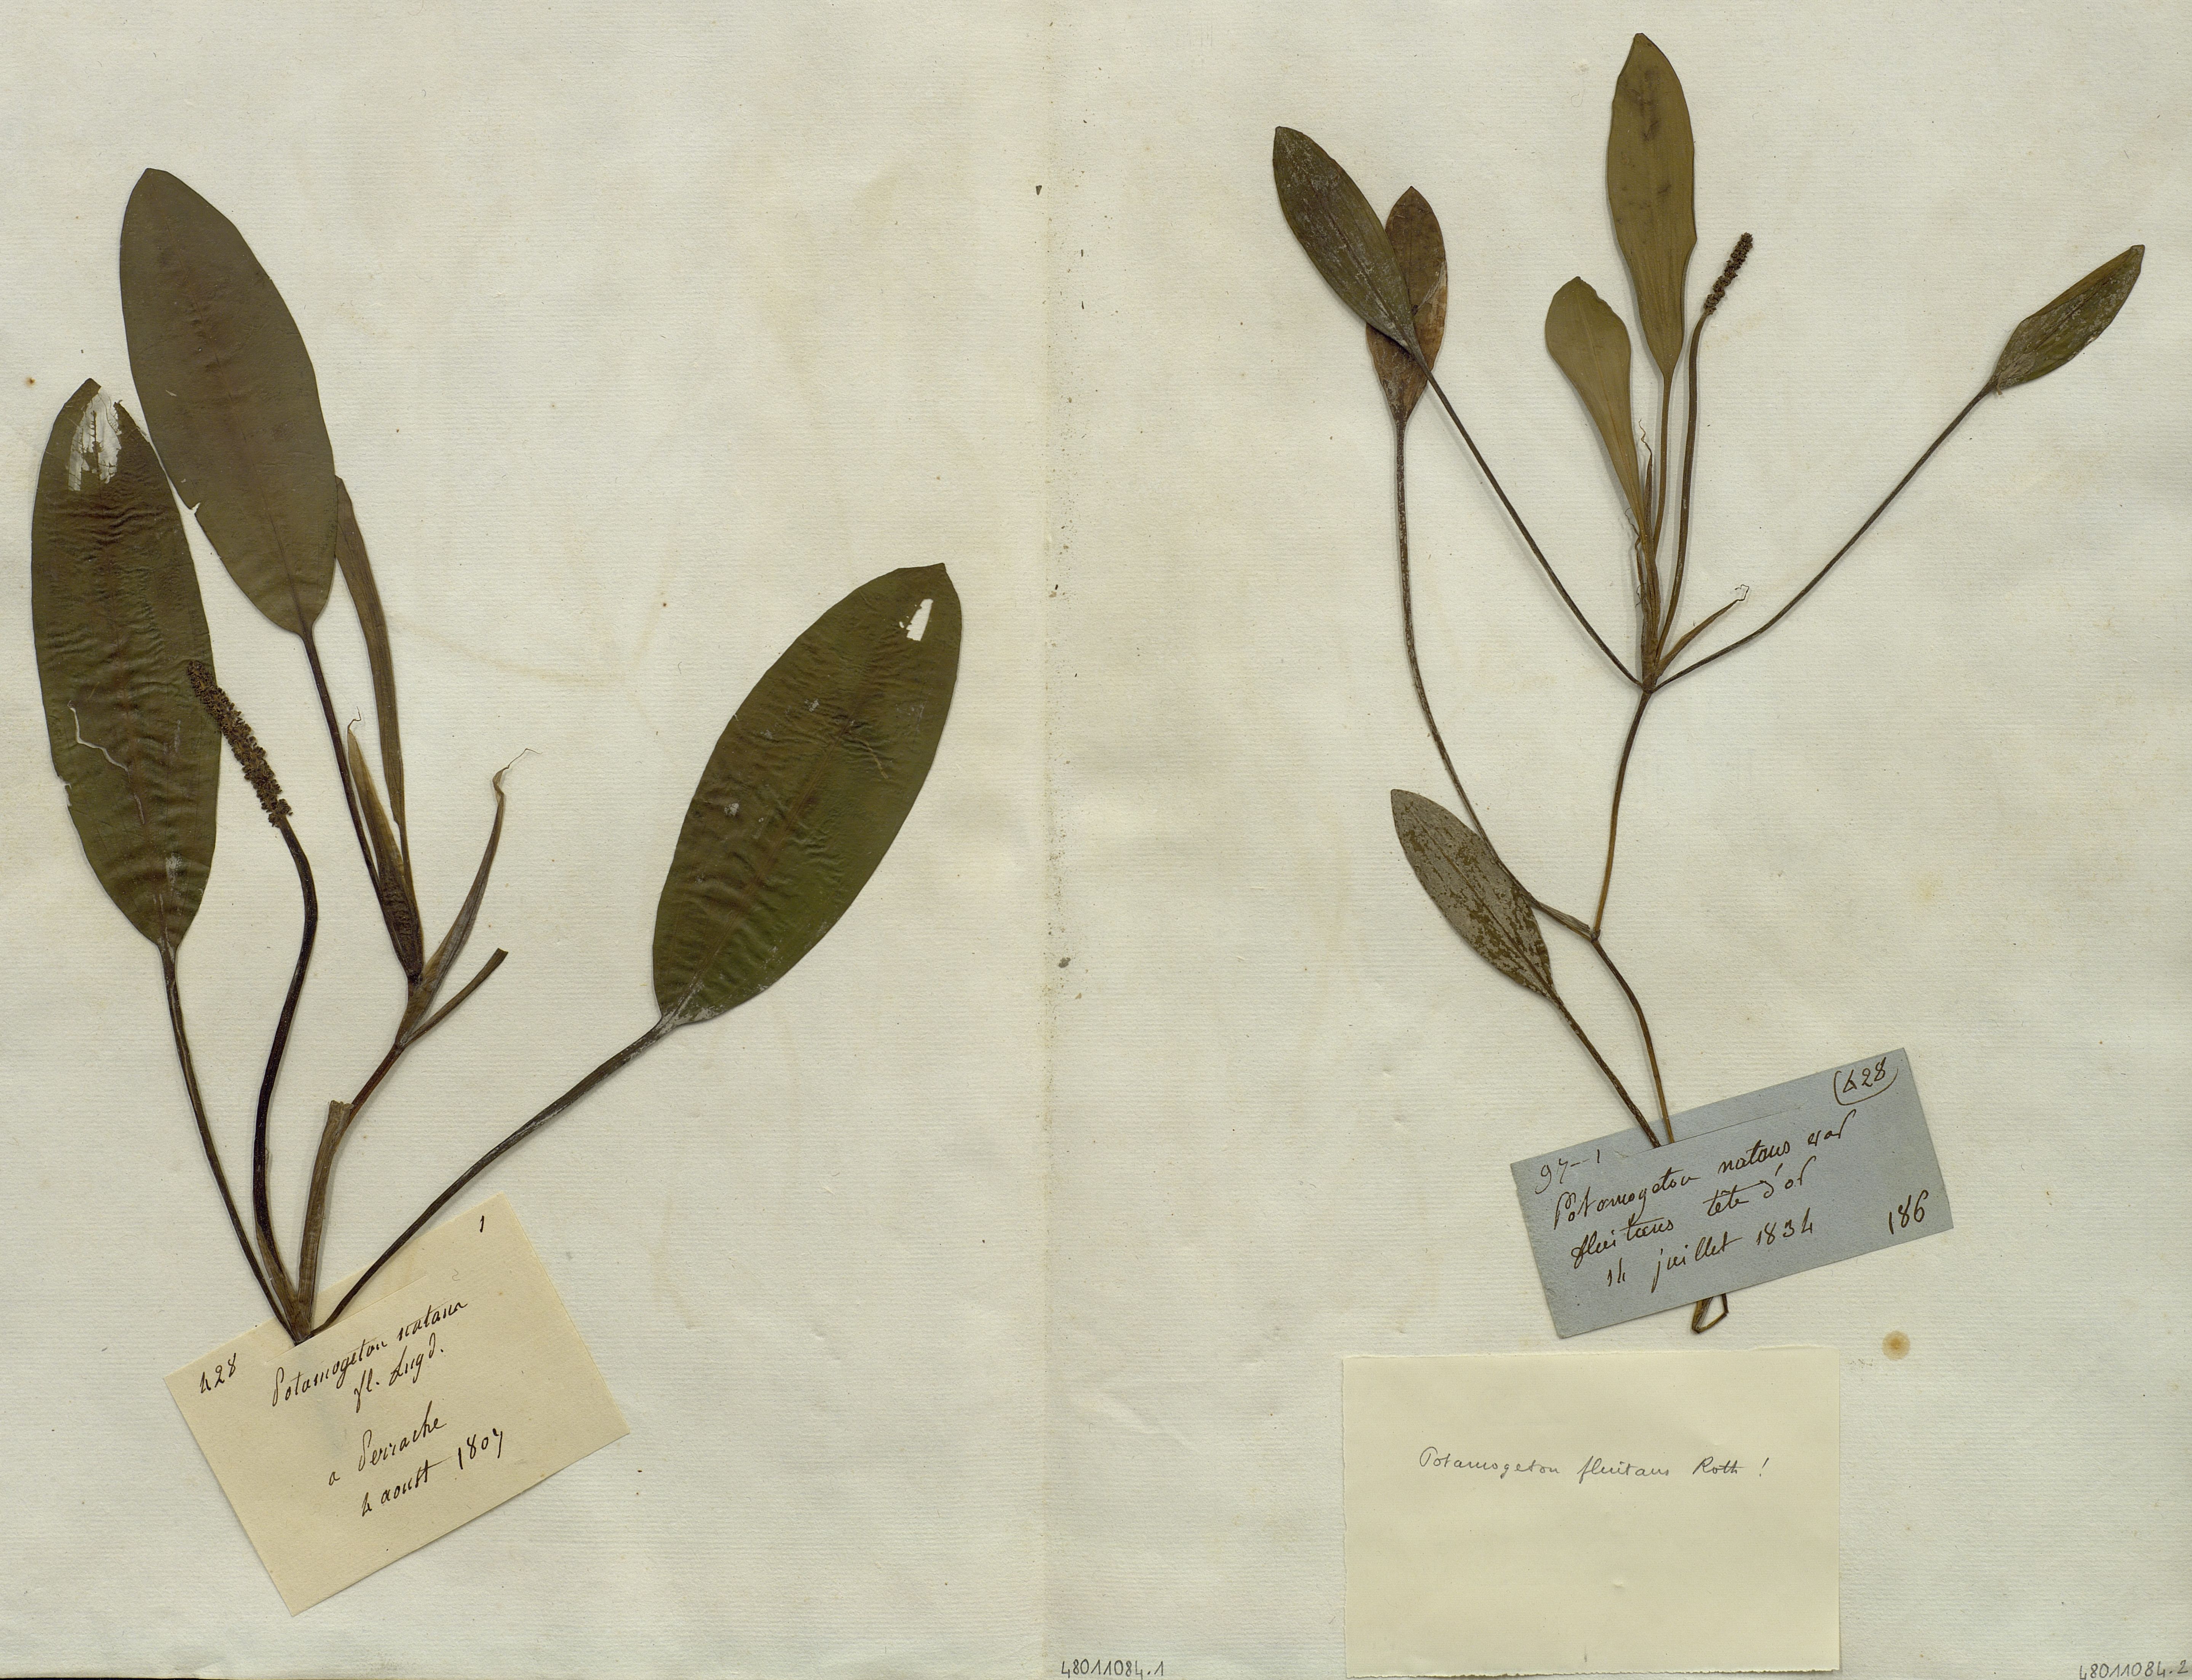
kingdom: Plantae
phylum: Tracheophyta
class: Liliopsida
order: Alismatales
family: Potamogetonaceae
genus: Potamogeton
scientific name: Potamogeton natans
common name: Broad-leaved pondweed
